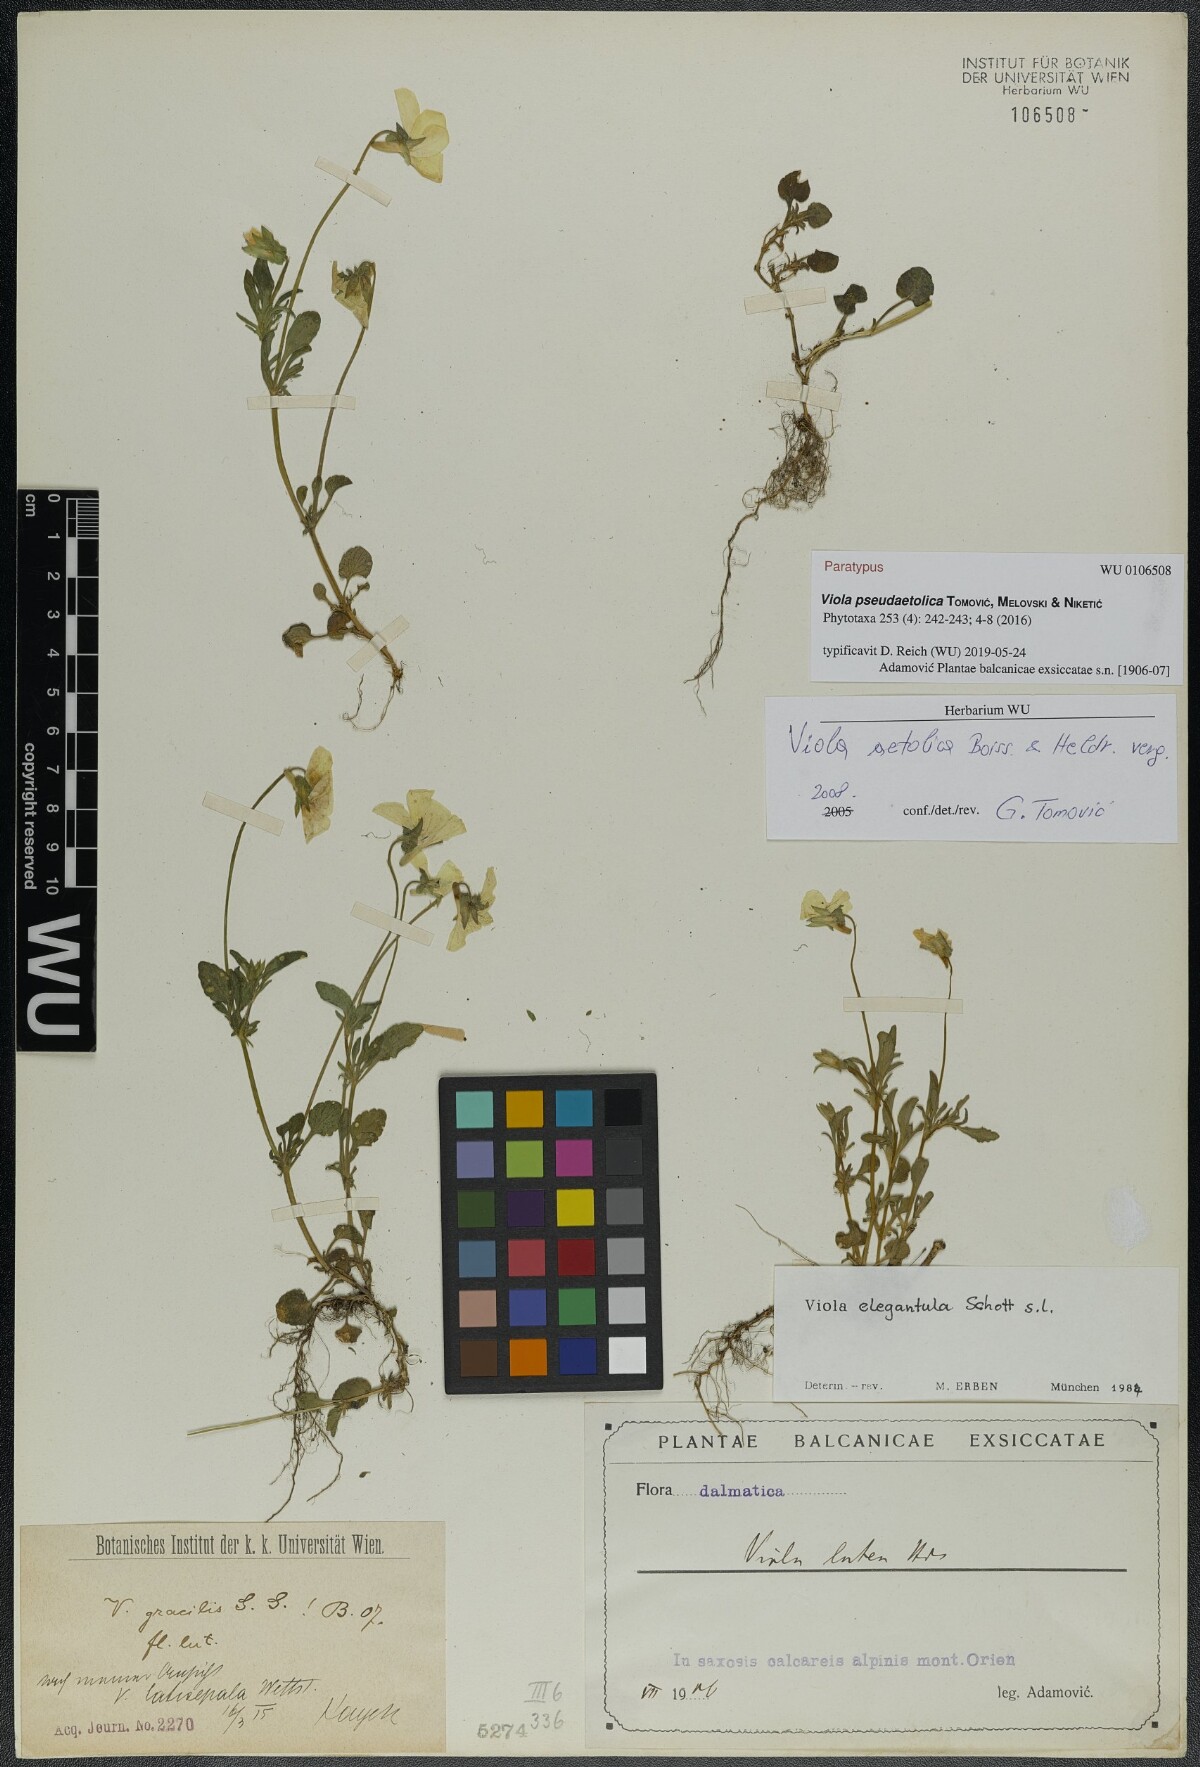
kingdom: Plantae
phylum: Tracheophyta
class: Magnoliopsida
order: Malpighiales
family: Violaceae
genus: Viola
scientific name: Viola pseudaetolica
